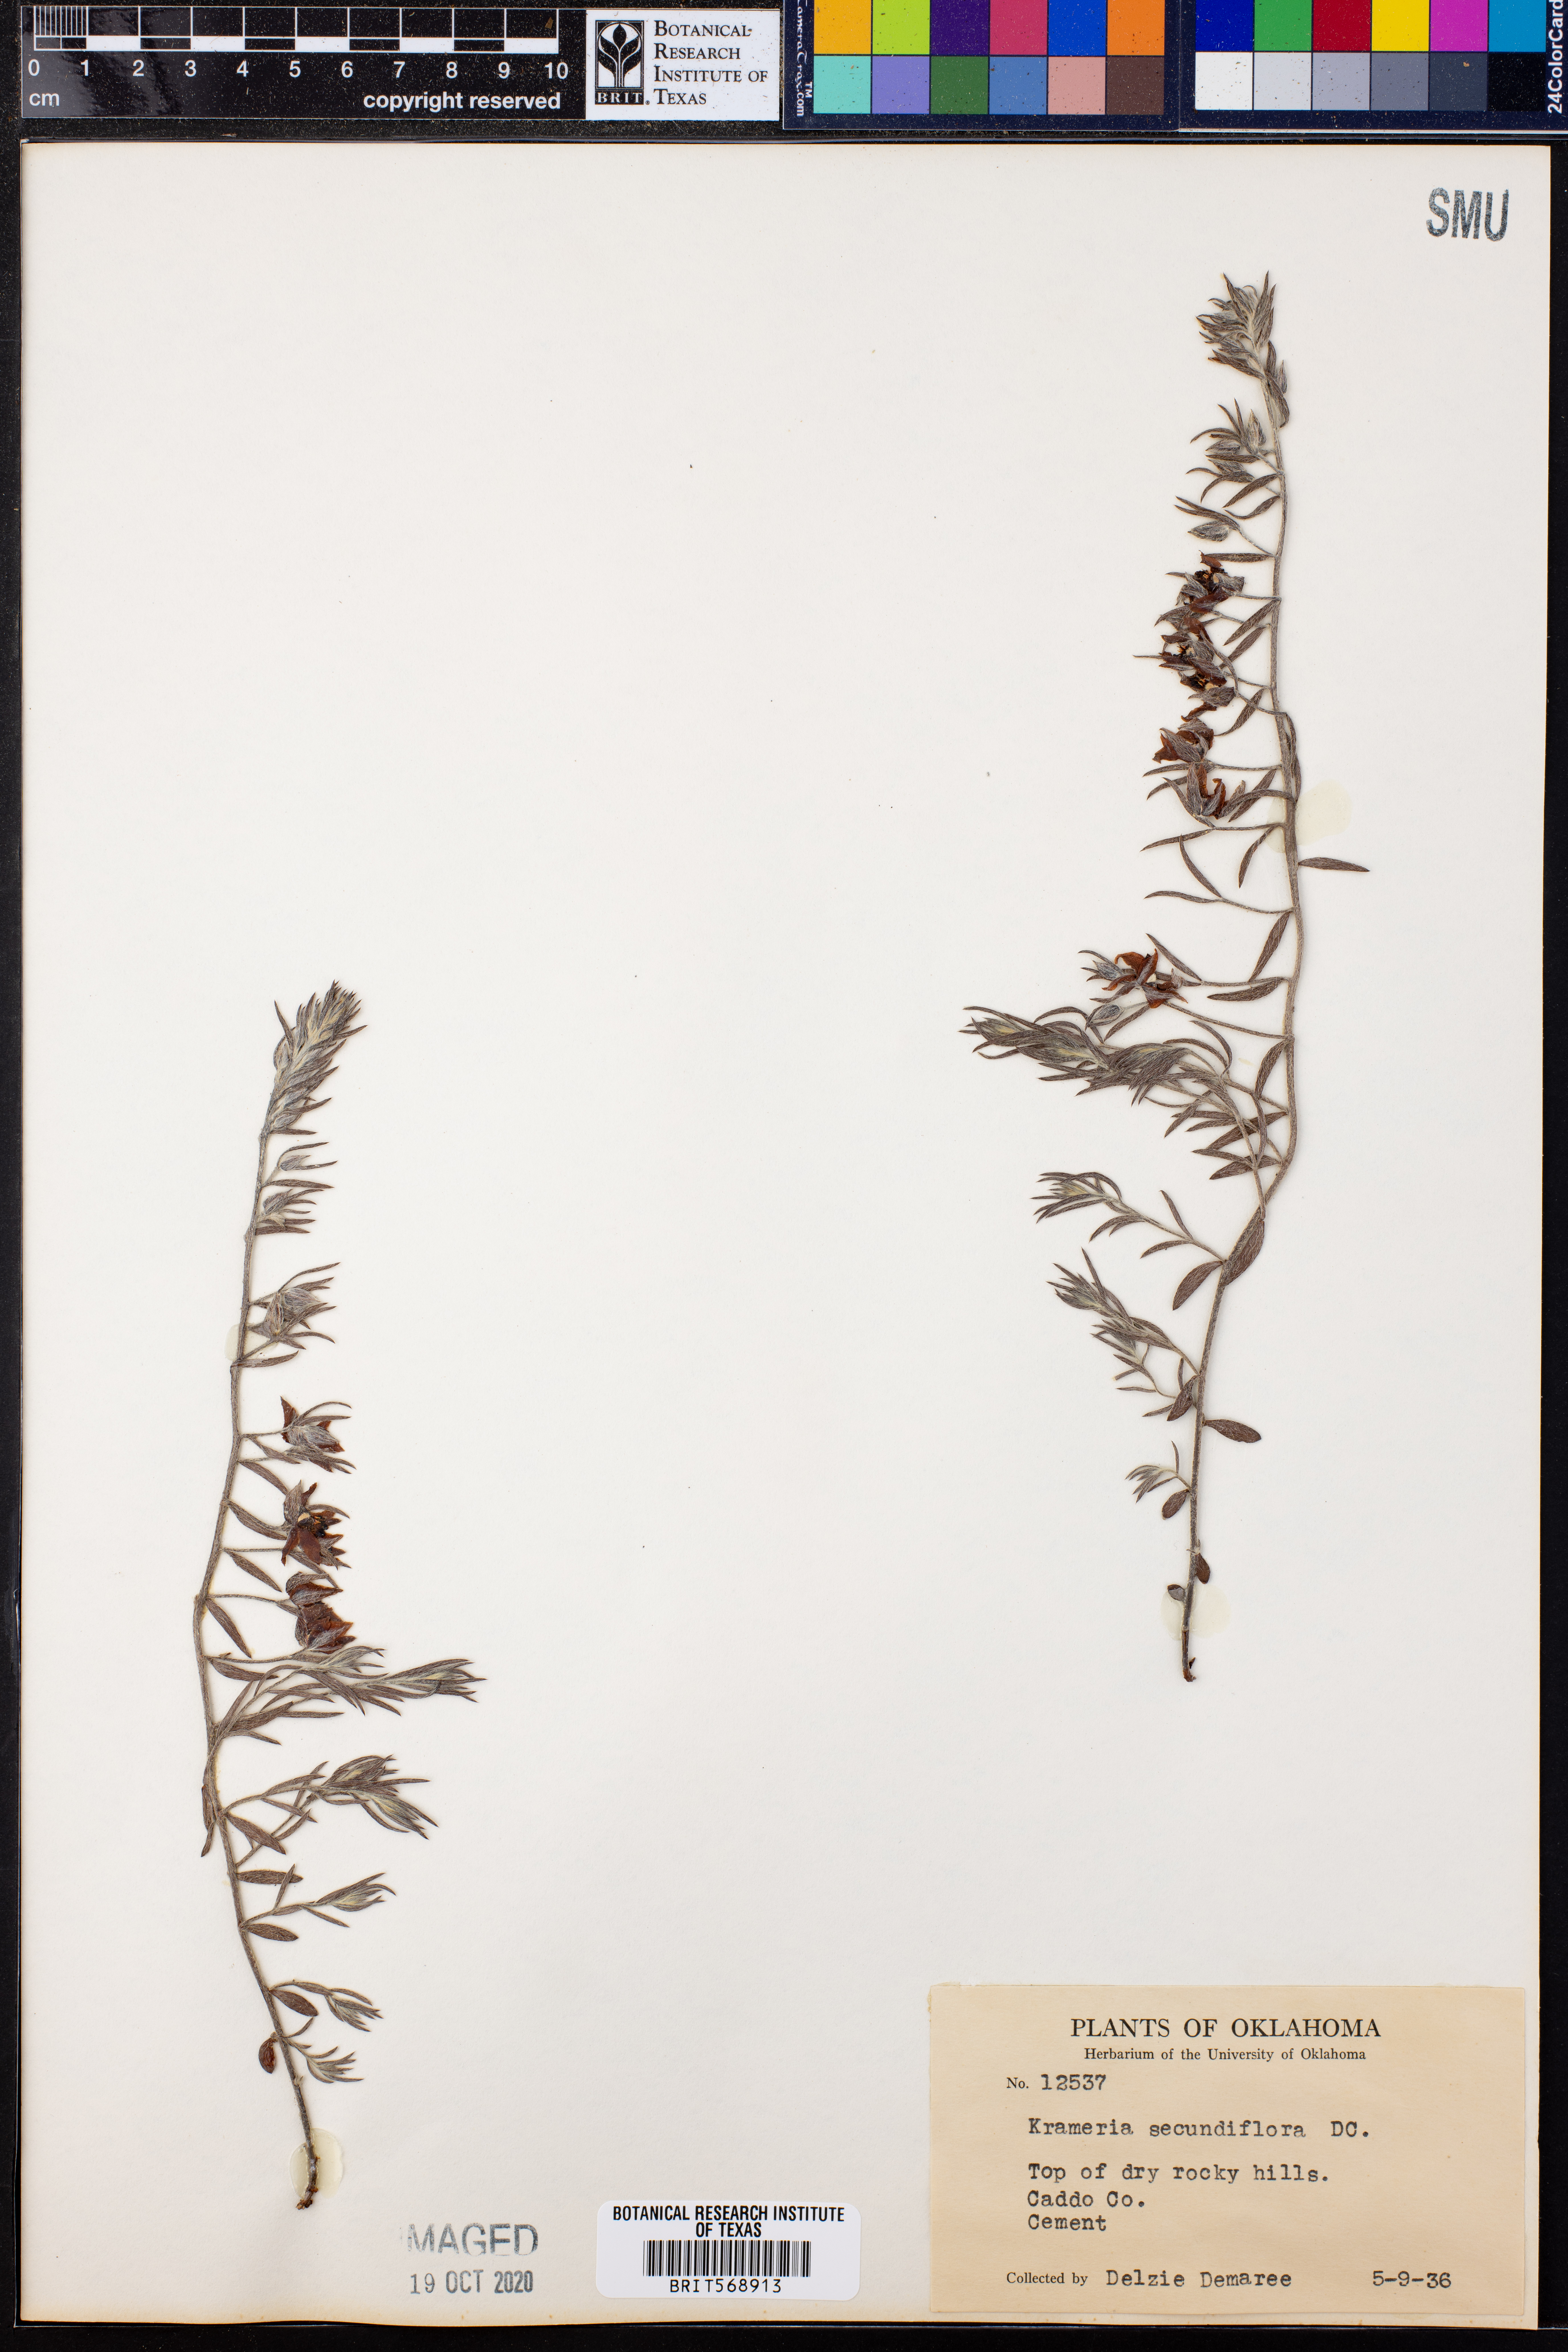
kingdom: Plantae
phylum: Tracheophyta
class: Magnoliopsida
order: Zygophyllales
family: Krameriaceae
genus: Krameria
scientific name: Krameria secundiflora
